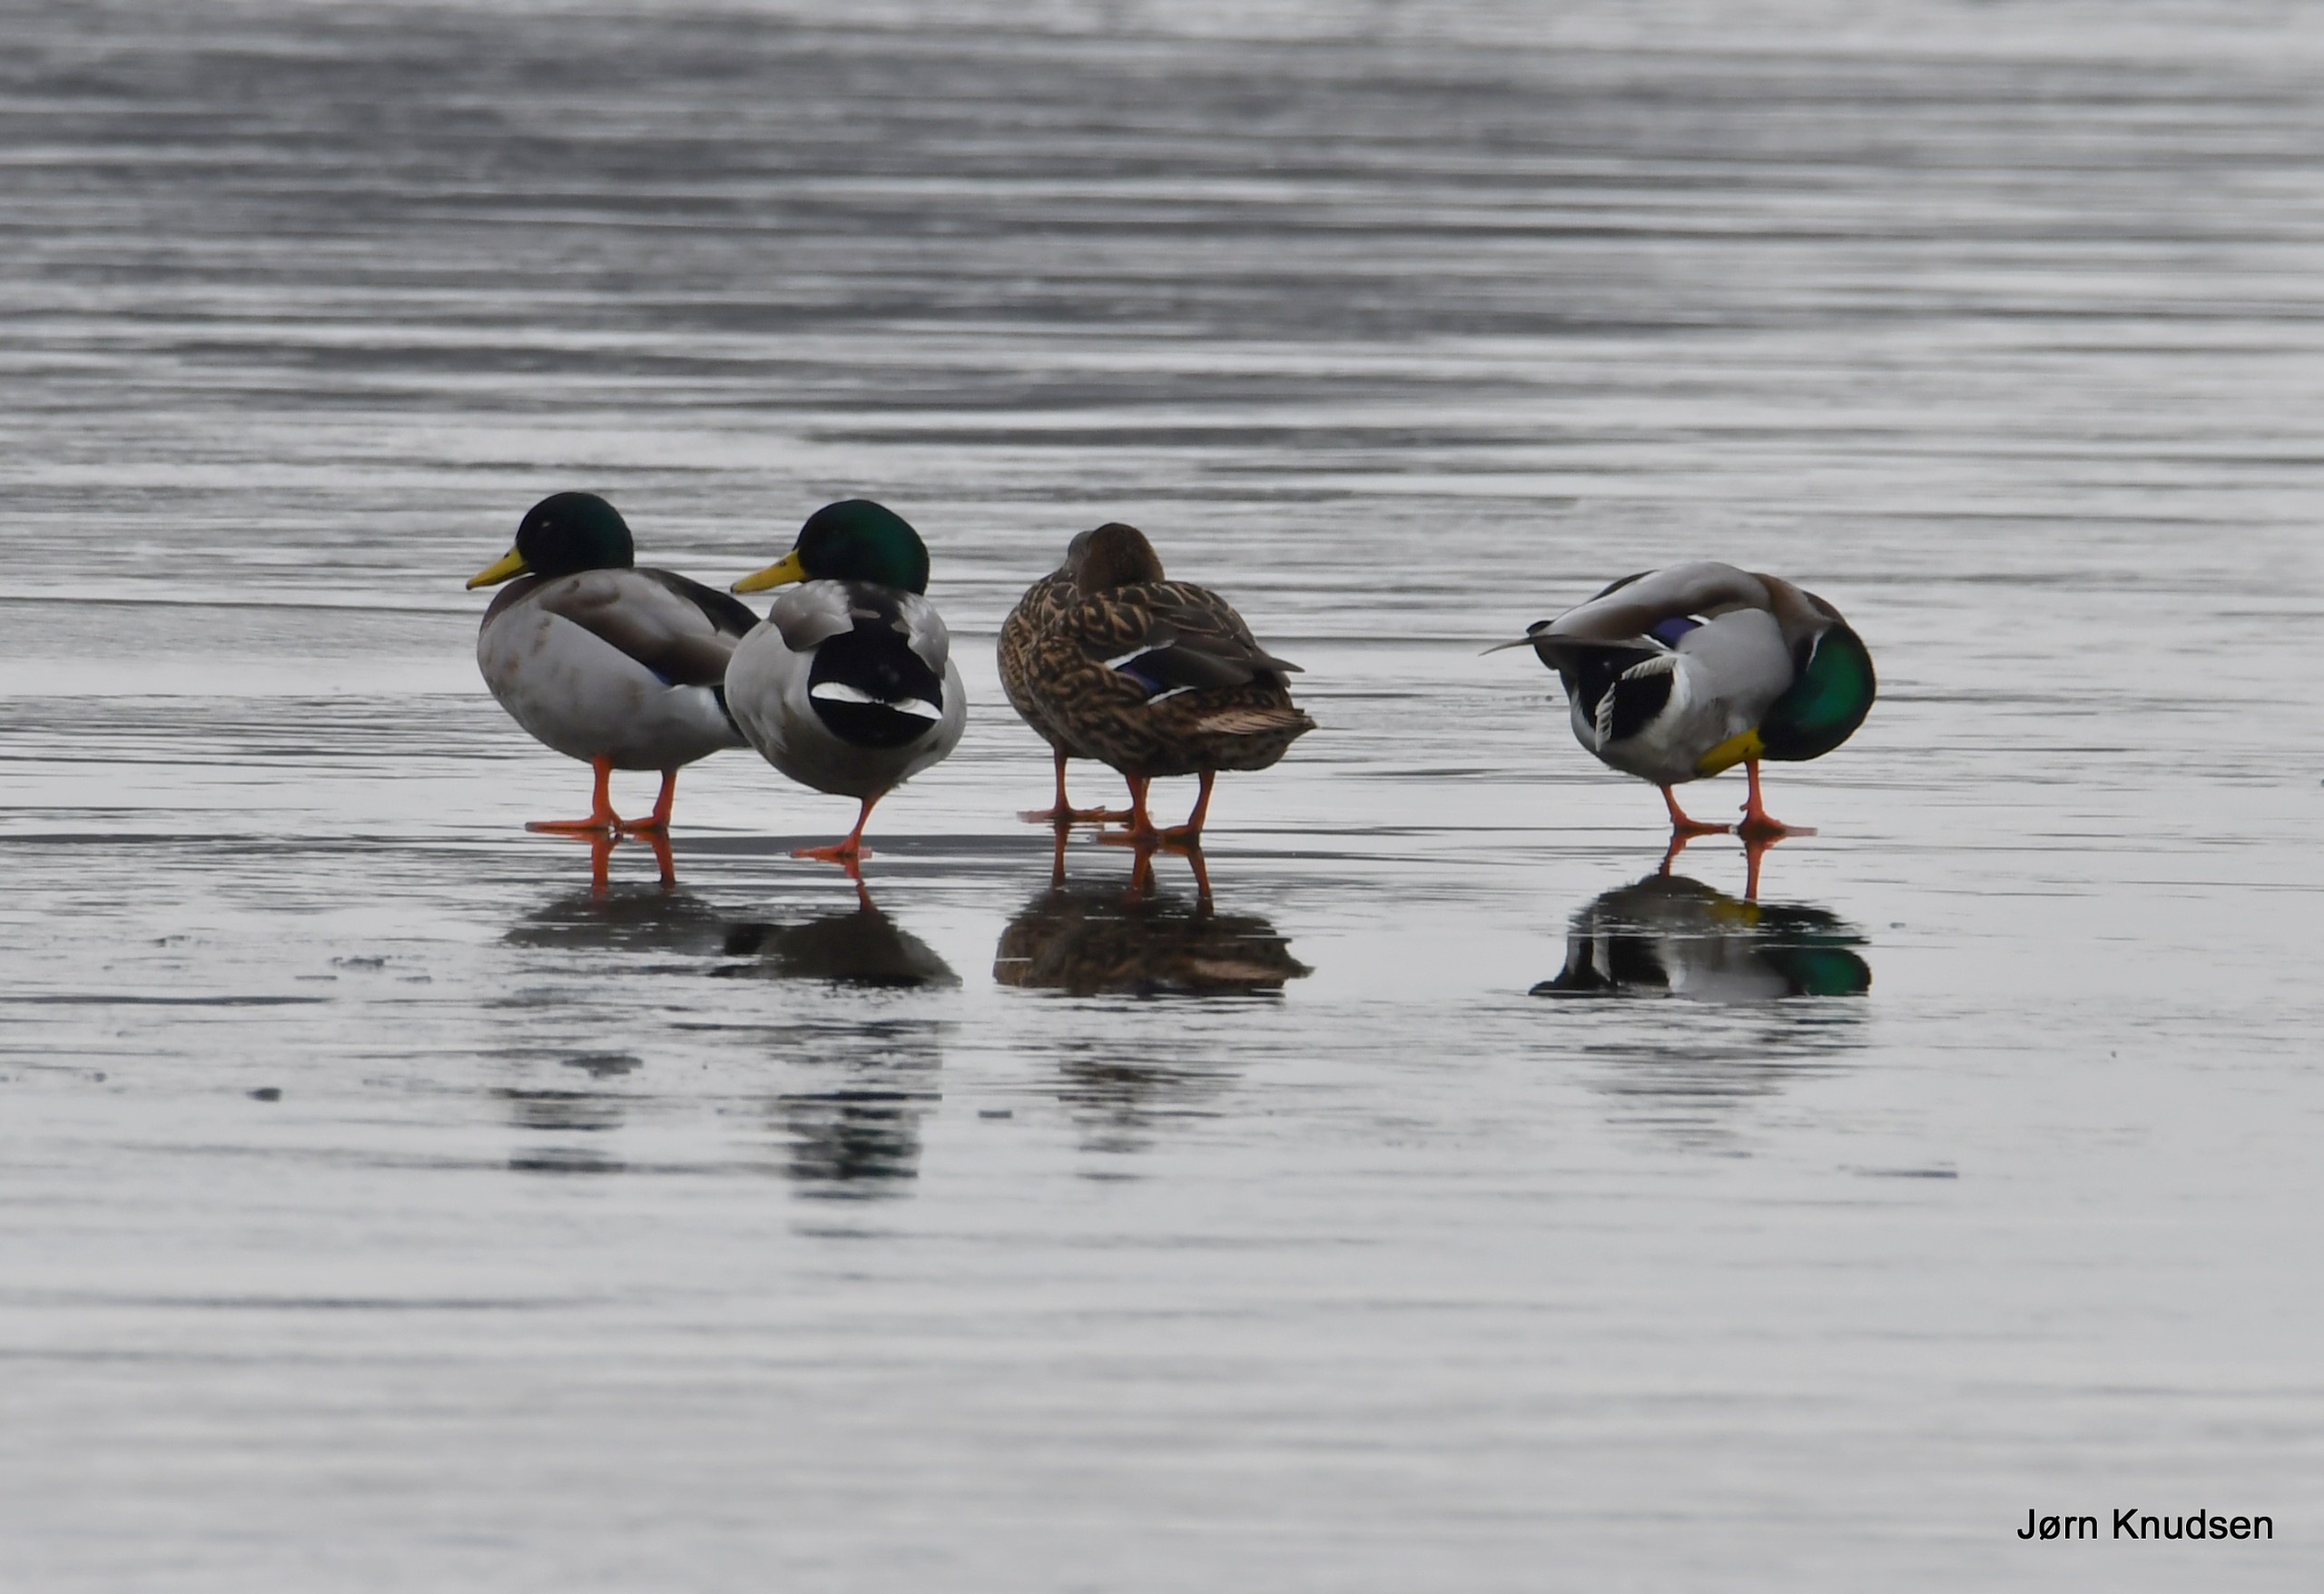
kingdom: Animalia
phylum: Chordata
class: Aves
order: Anseriformes
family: Anatidae
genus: Anas
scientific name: Anas platyrhynchos
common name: Gråand
